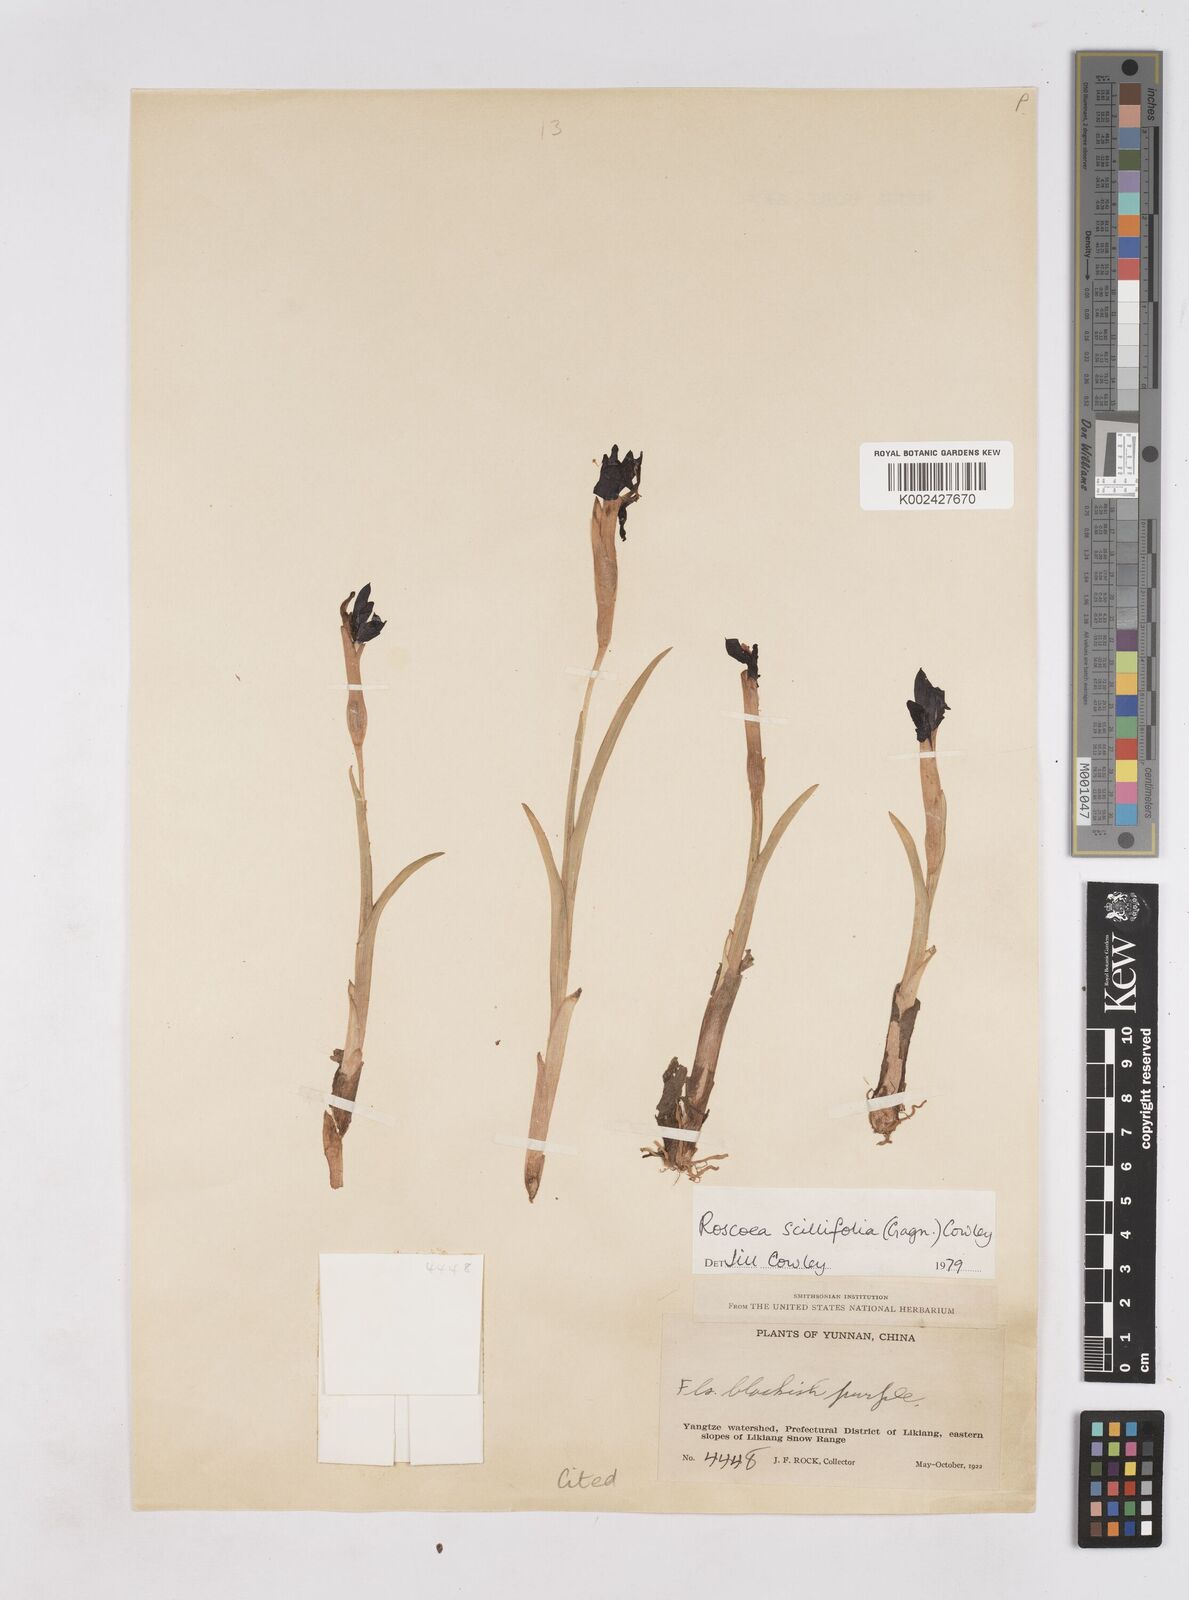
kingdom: Plantae
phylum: Tracheophyta
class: Liliopsida
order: Zingiberales
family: Zingiberaceae
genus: Roscoea
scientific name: Roscoea scillifolia
